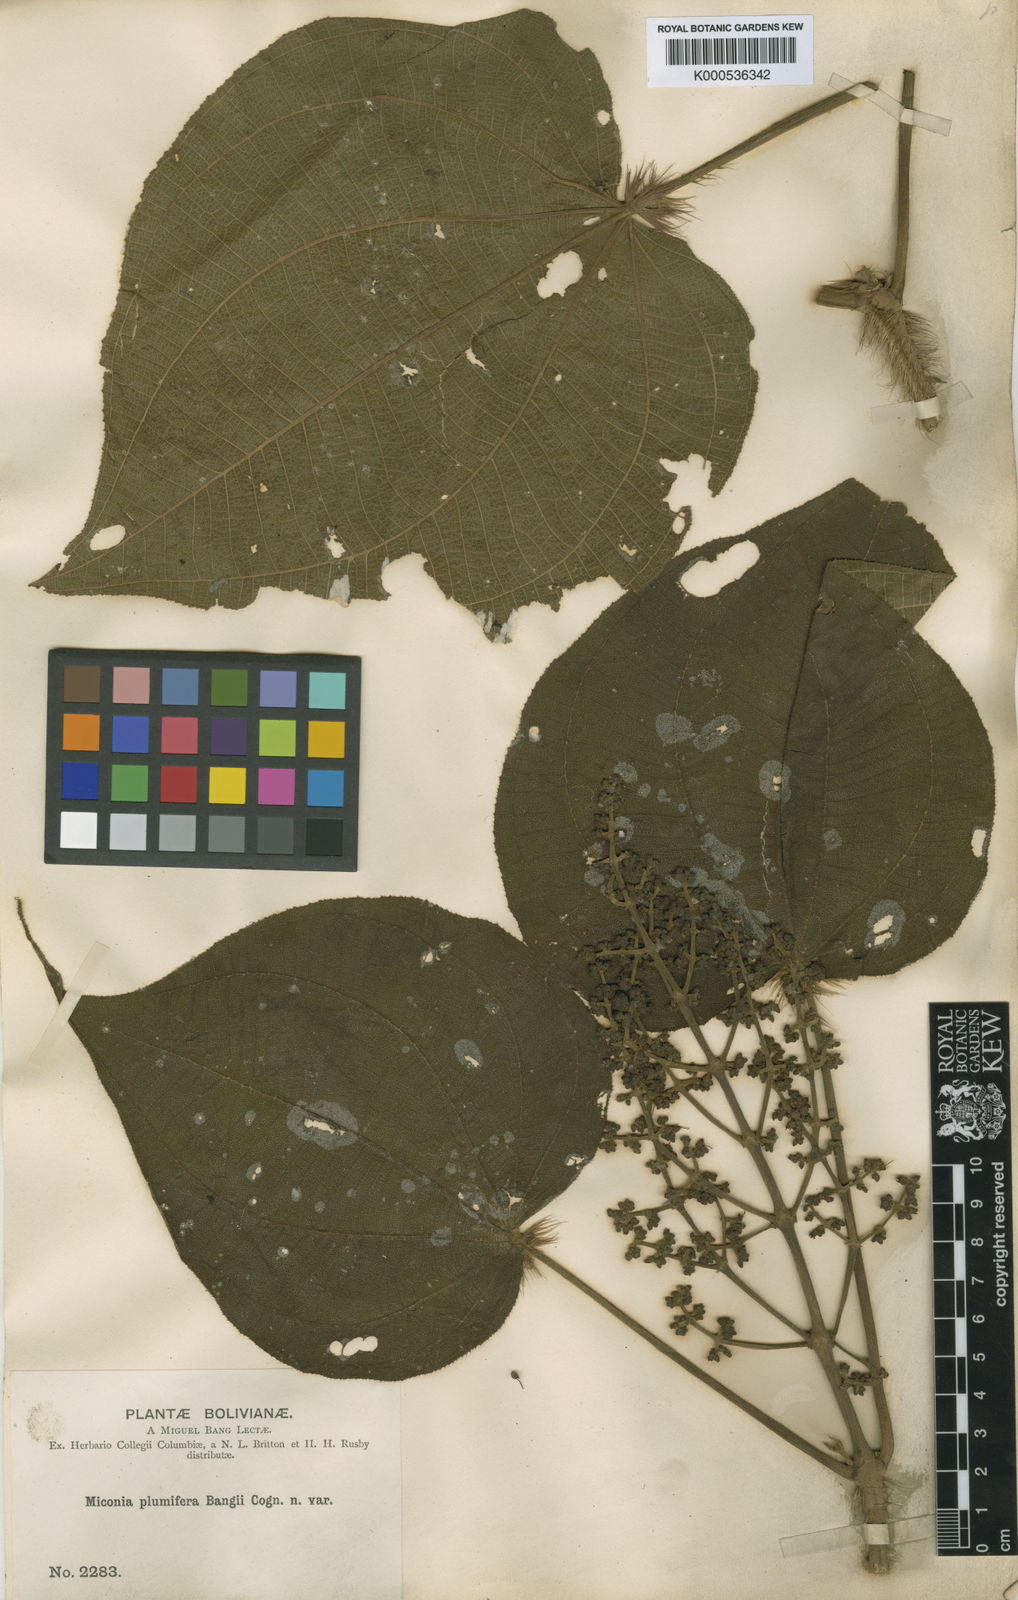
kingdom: Plantae
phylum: Tracheophyta
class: Magnoliopsida
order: Myrtales
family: Melastomataceae
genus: Miconia
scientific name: Miconia plumifera
